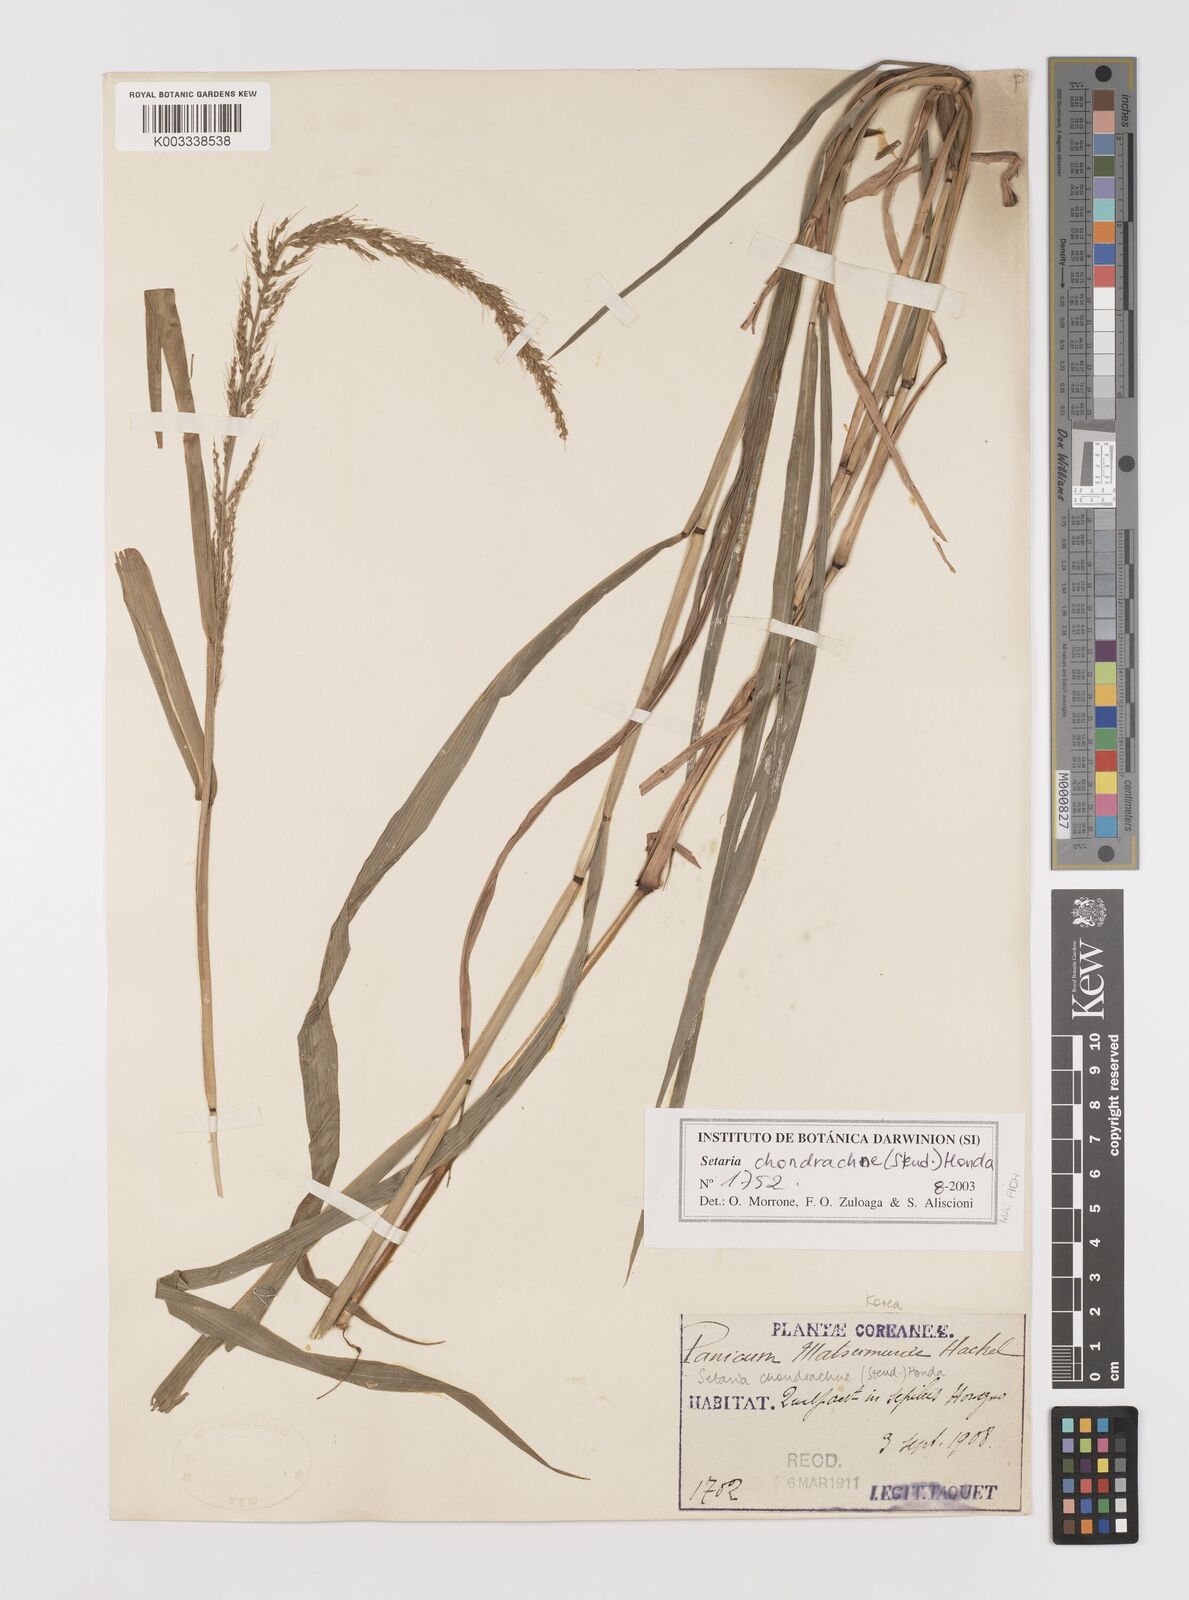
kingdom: Plantae
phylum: Tracheophyta
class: Liliopsida
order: Poales
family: Poaceae
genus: Setaria
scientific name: Setaria chondrachne
